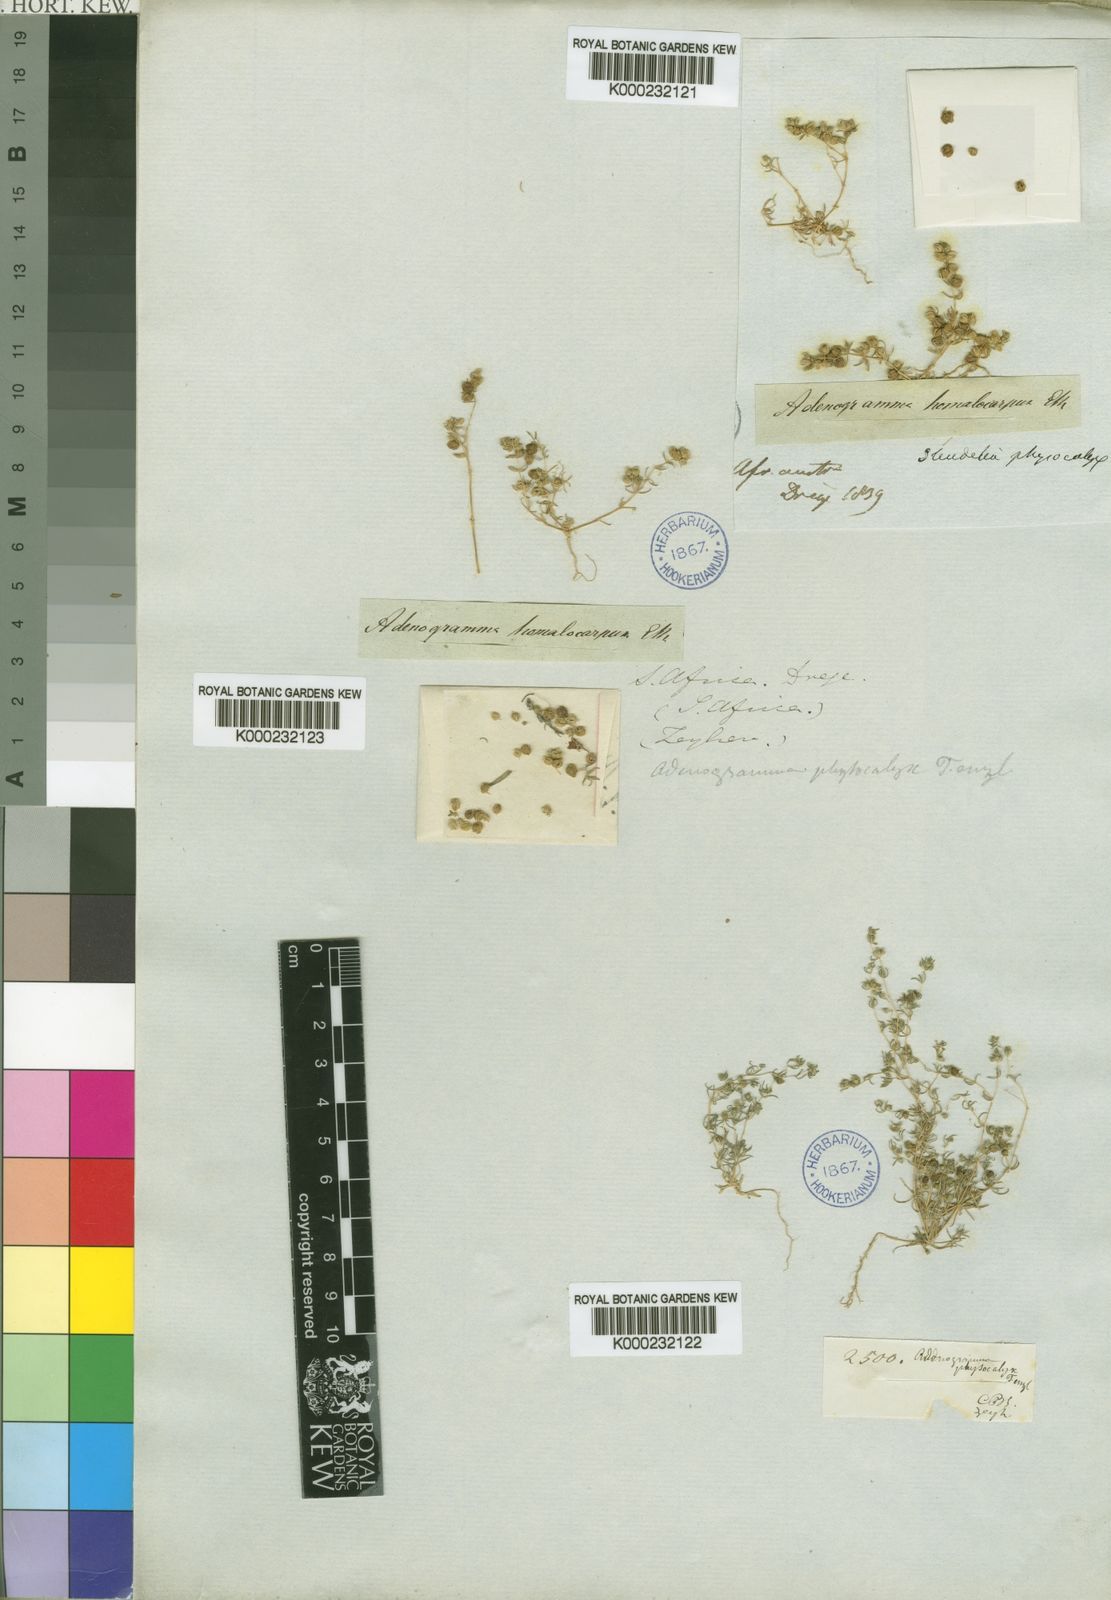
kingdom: Plantae
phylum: Tracheophyta
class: Magnoliopsida
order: Caryophyllales
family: Molluginaceae
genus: Adenogramma
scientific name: Adenogramma physocalyx
